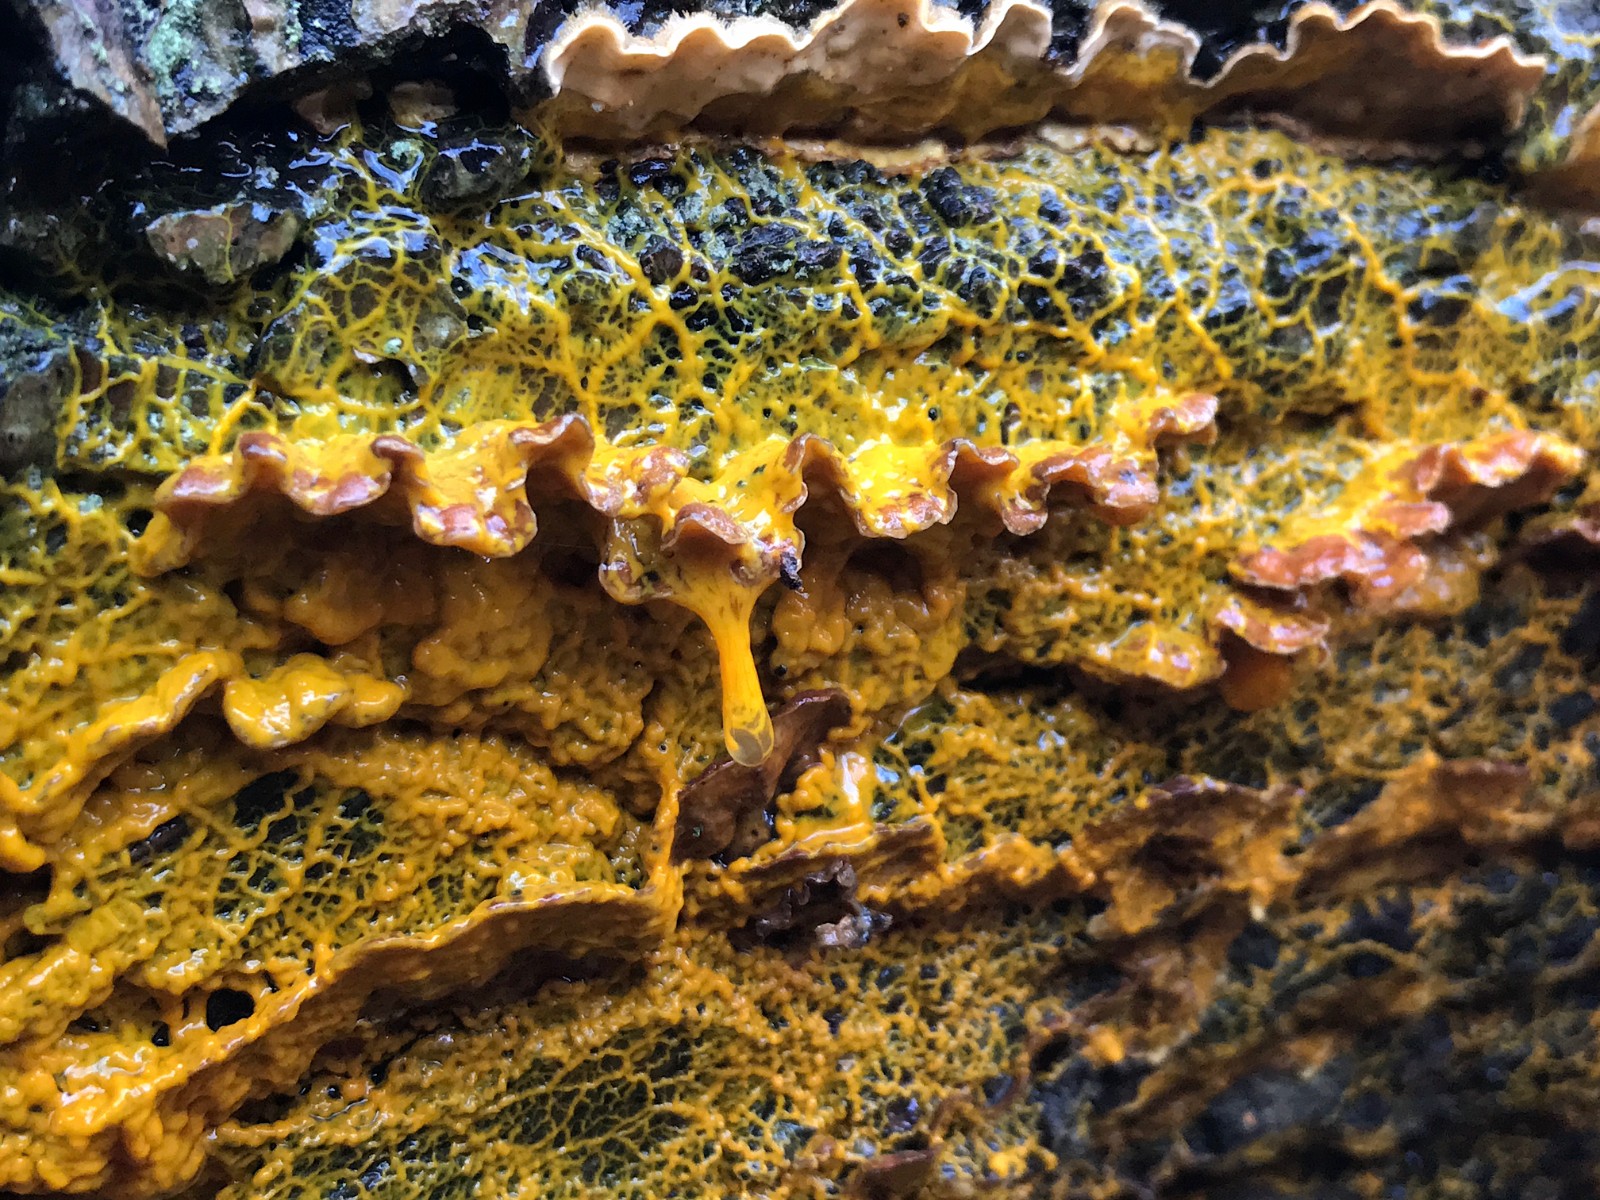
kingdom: Protozoa
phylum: Mycetozoa
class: Myxomycetes
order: Physarales
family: Physaraceae
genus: Badhamia
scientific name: Badhamia utricularis
